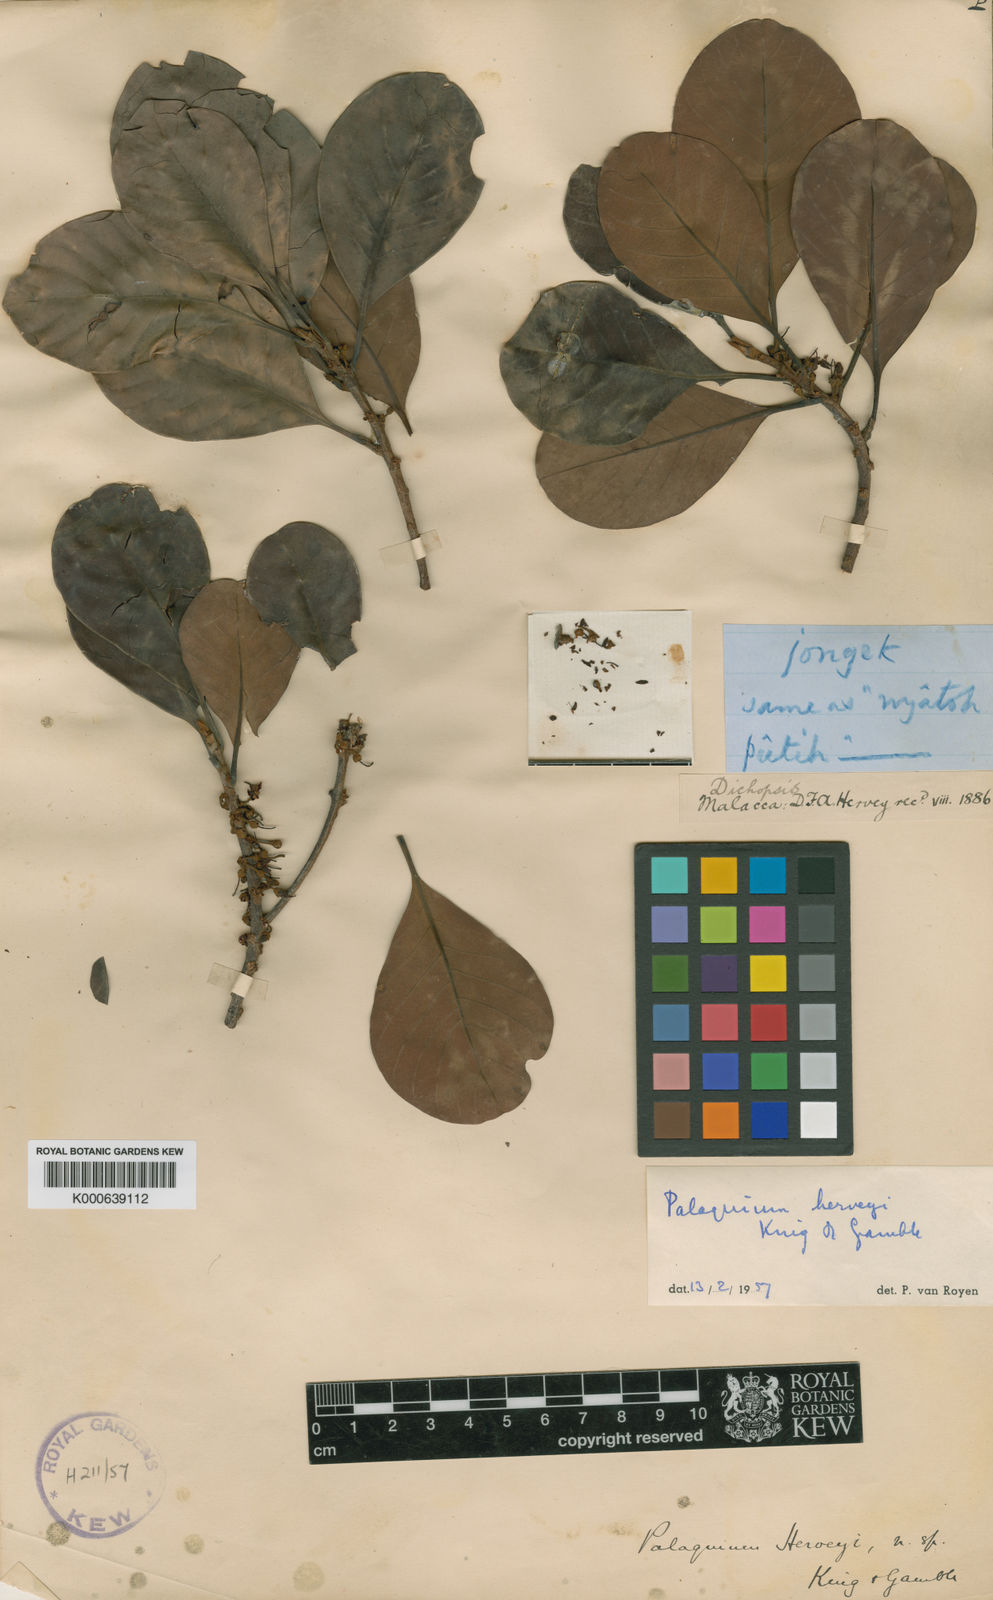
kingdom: Plantae
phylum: Tracheophyta
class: Magnoliopsida
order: Ericales
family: Sapotaceae
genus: Palaquium
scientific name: Palaquium herveyi
